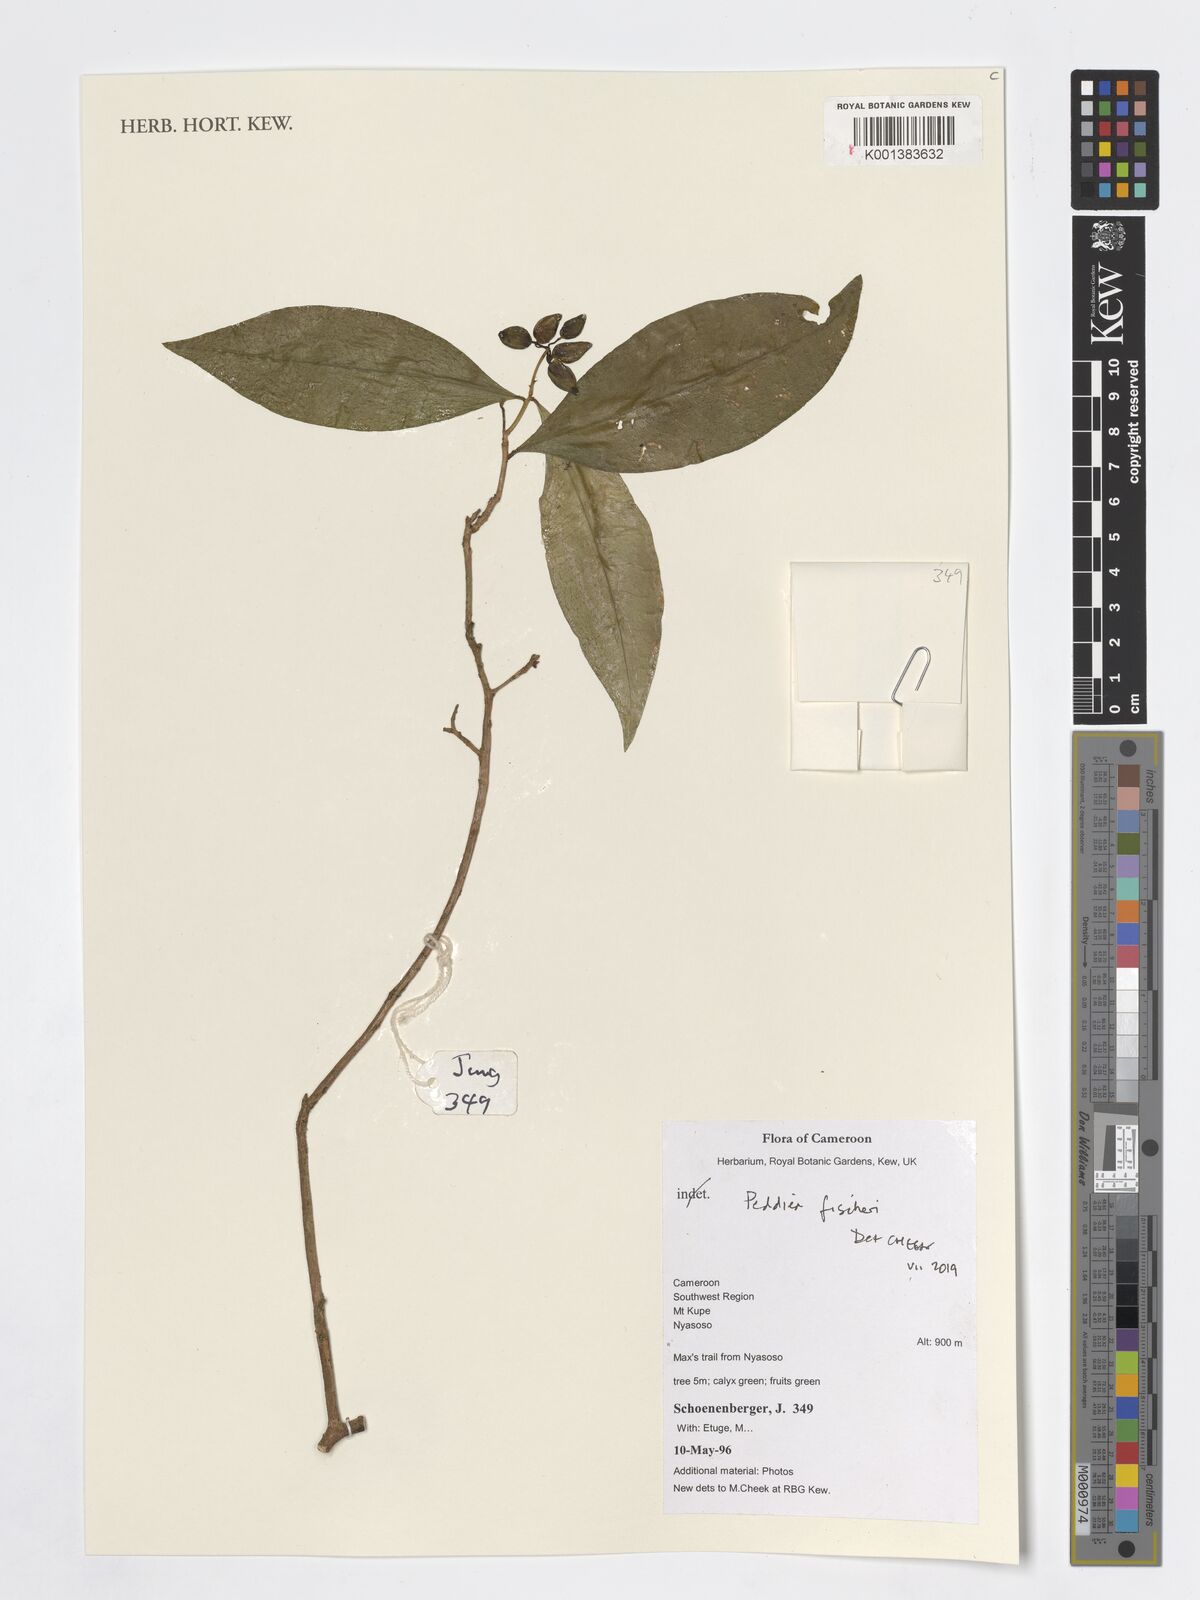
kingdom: Plantae
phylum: Tracheophyta
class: Magnoliopsida
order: Malvales
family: Thymelaeaceae
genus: Peddiea
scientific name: Peddiea fischeri
